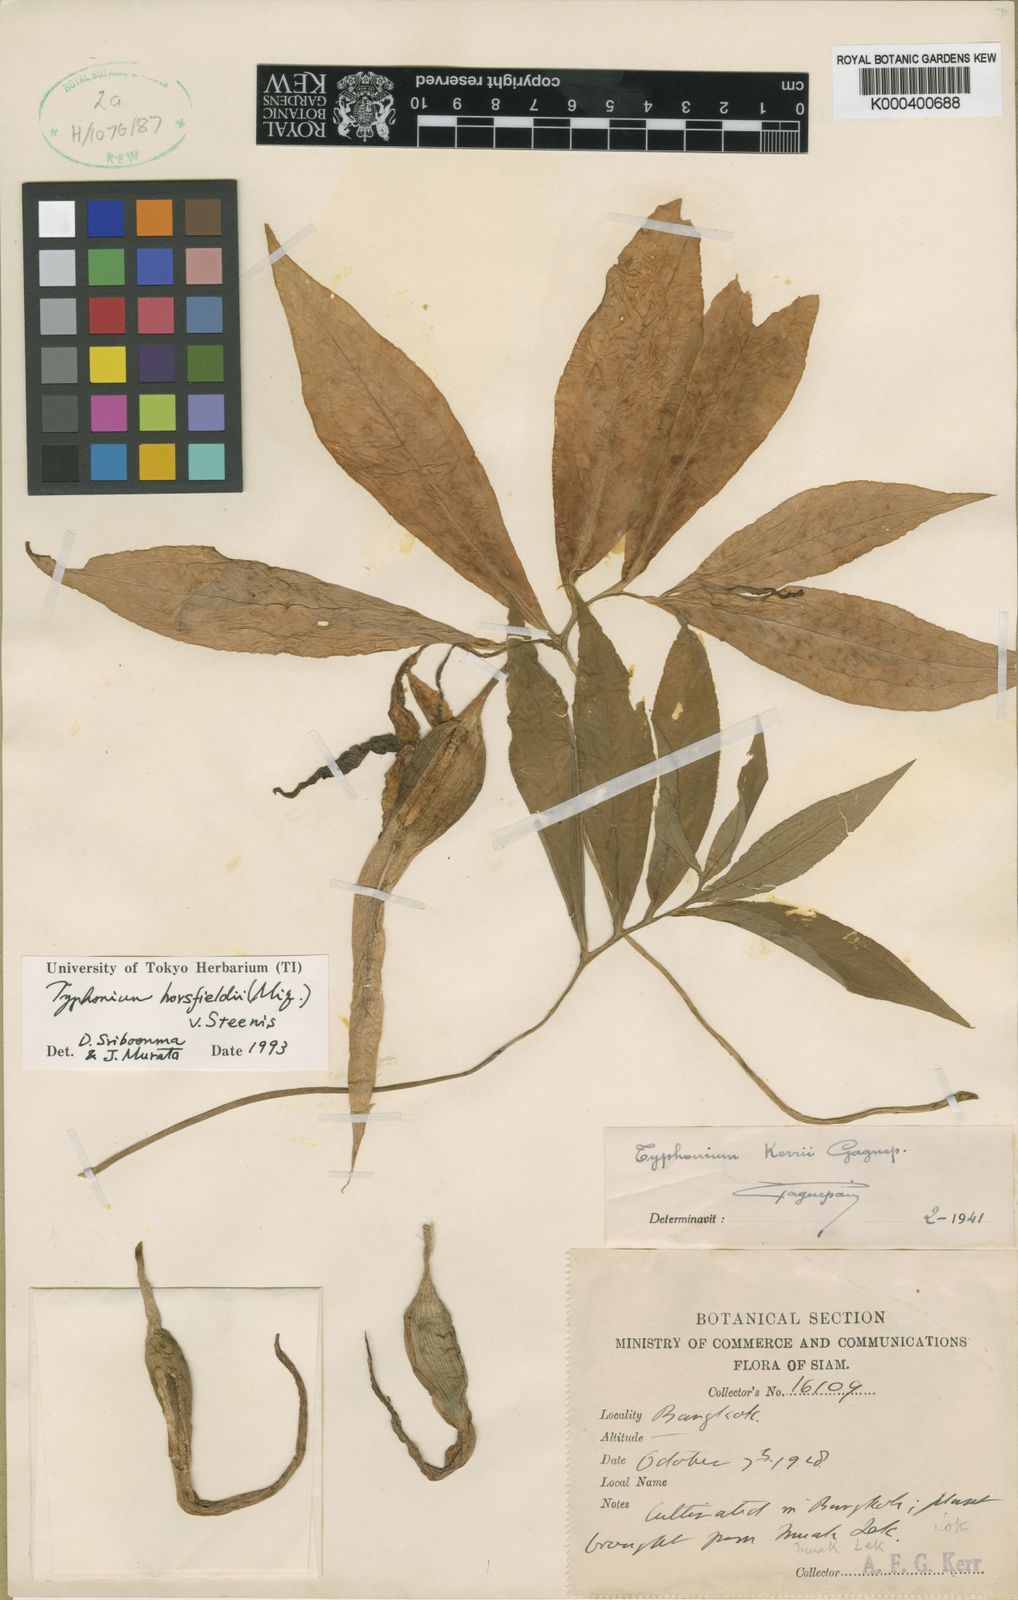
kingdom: Plantae
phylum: Tracheophyta
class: Liliopsida
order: Alismatales
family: Araceae
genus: Sauromatum
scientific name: Sauromatum horsfieldii
